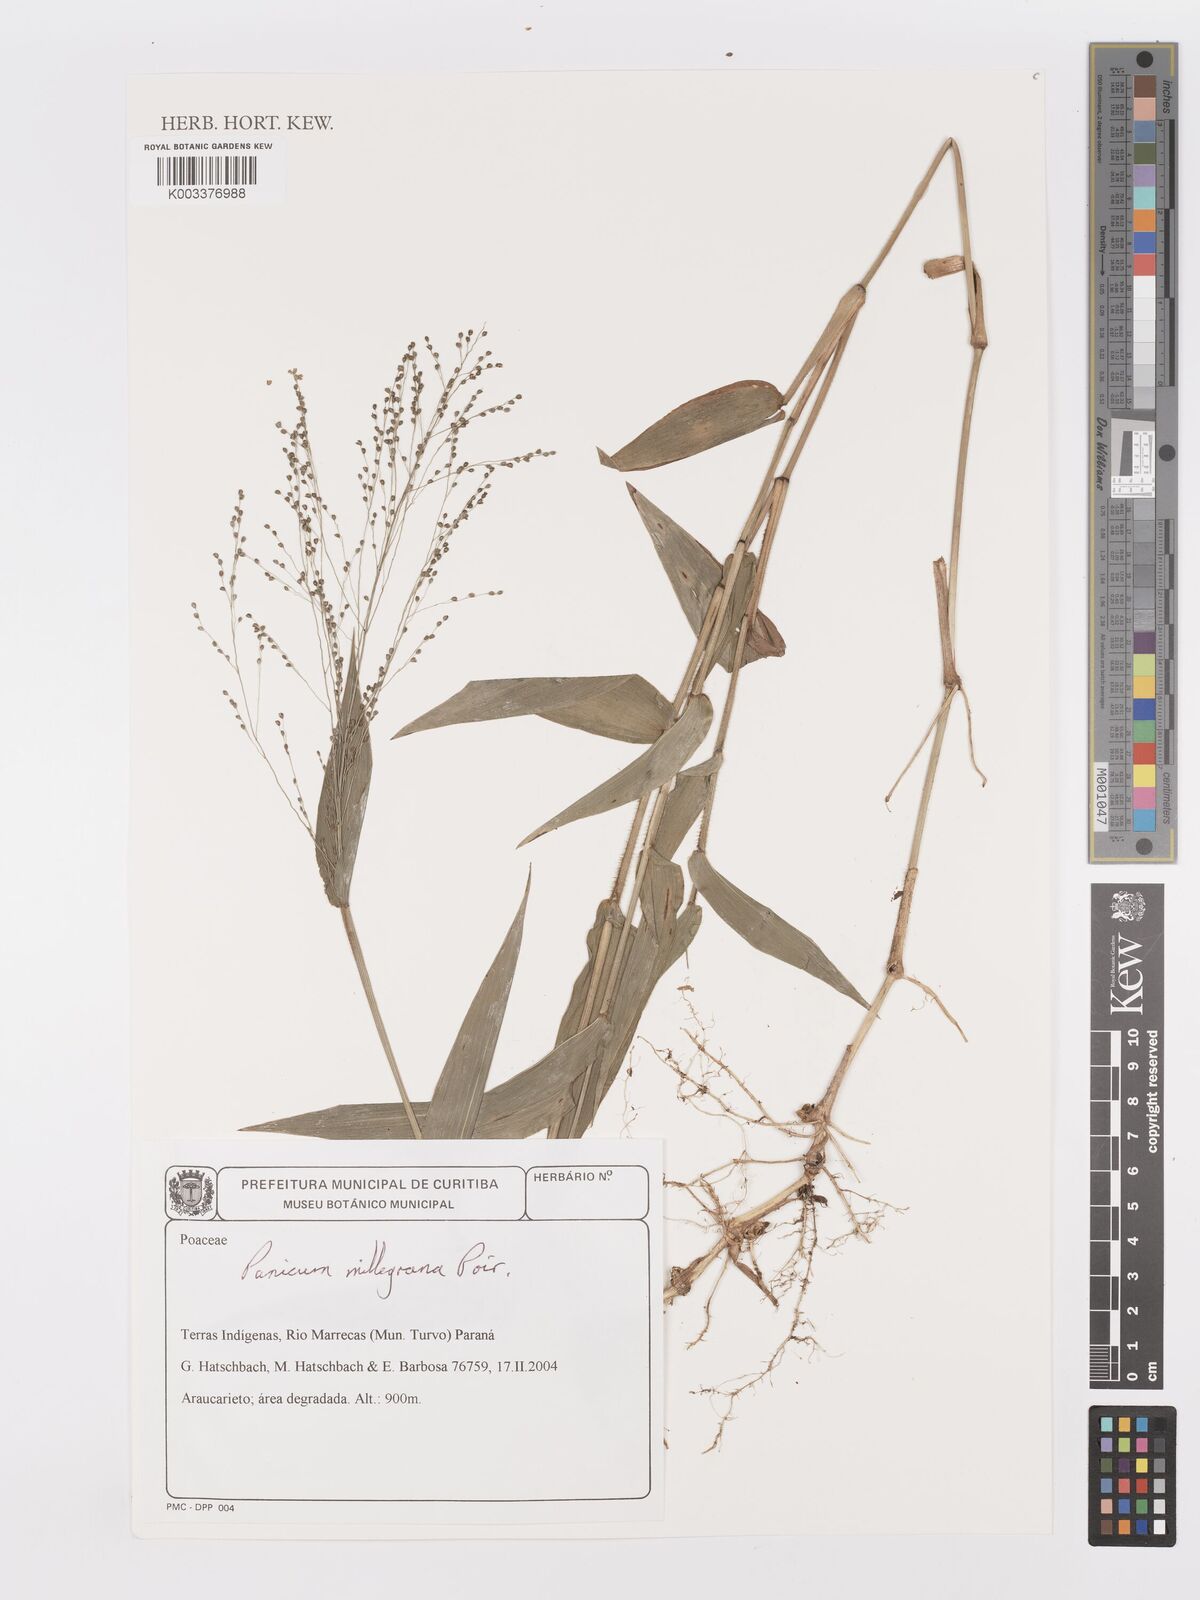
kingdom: Plantae
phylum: Tracheophyta
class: Liliopsida
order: Poales
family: Poaceae
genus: Panicum
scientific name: Panicum millegrana
